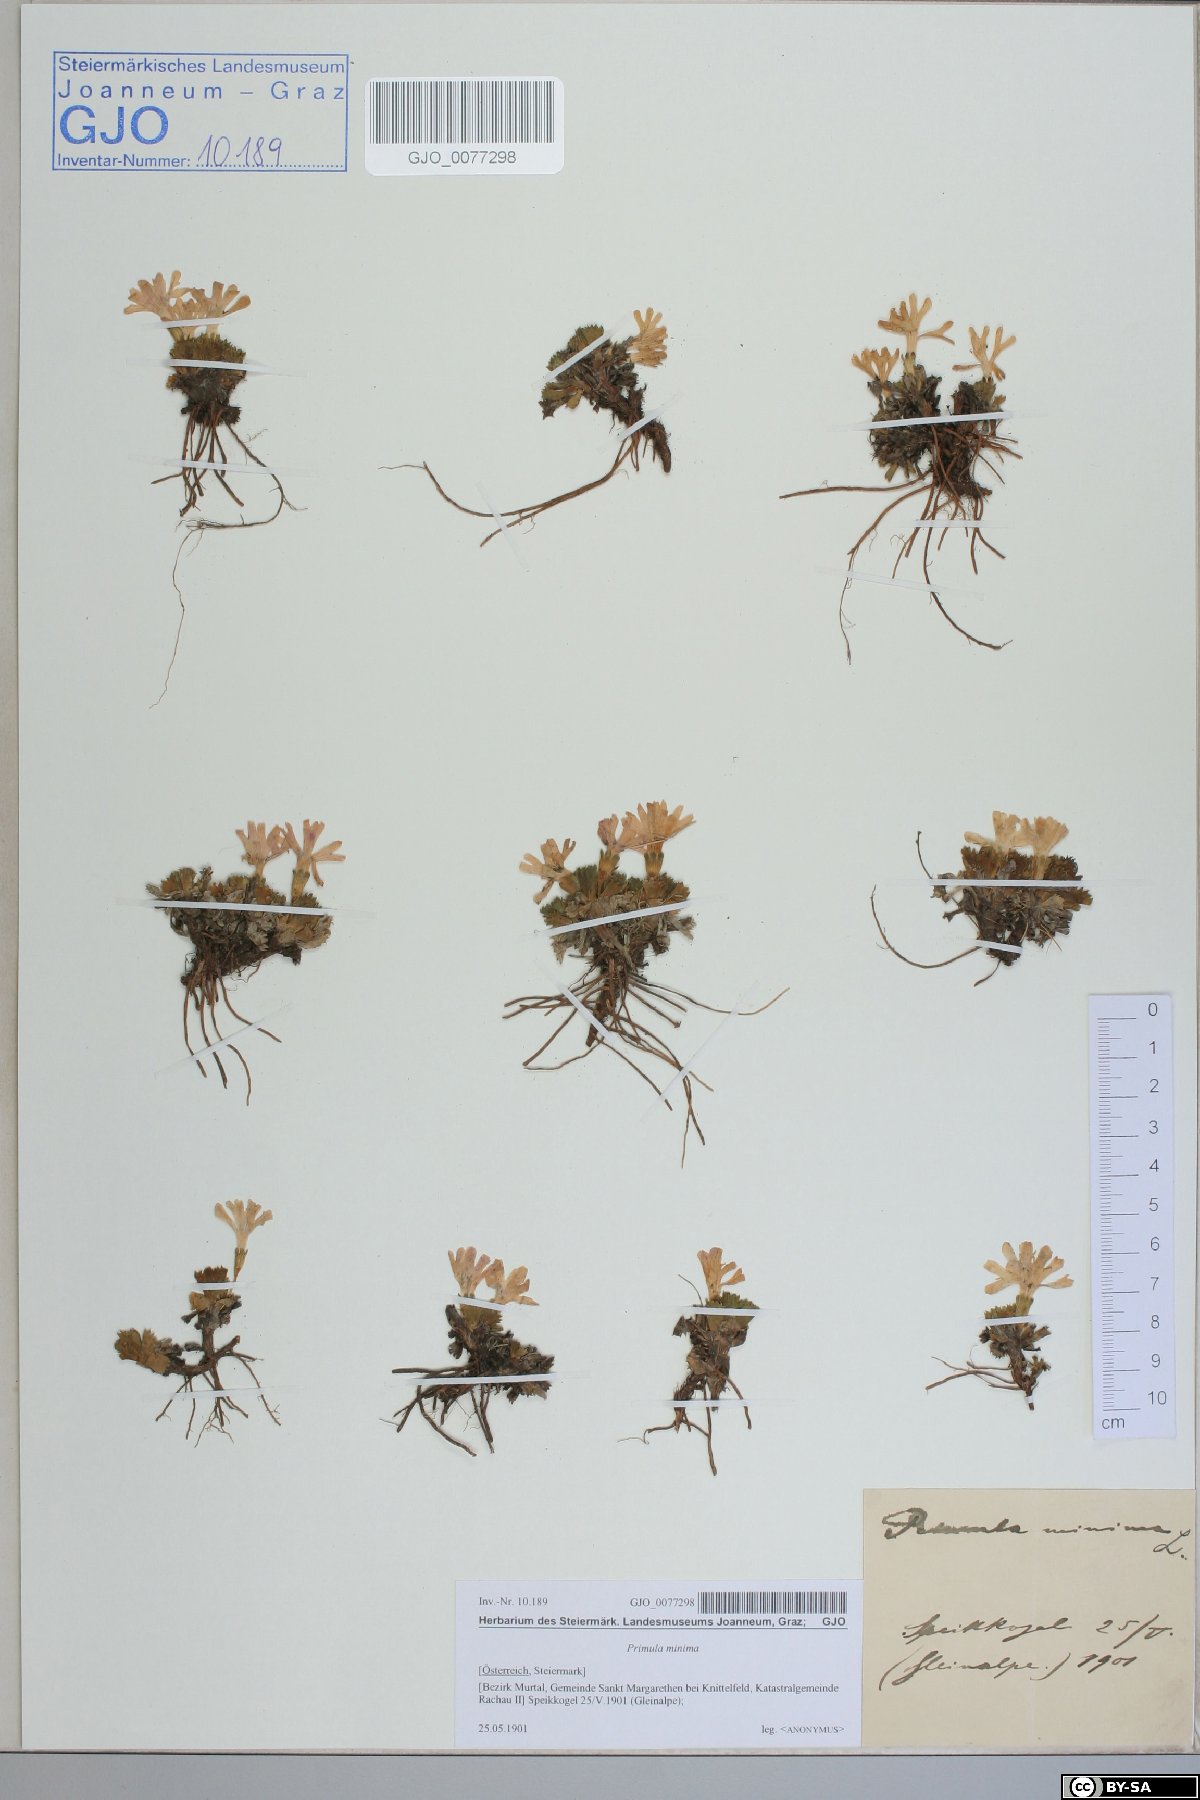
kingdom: Plantae
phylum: Tracheophyta
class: Magnoliopsida
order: Ericales
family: Primulaceae
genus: Primula
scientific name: Primula minima
